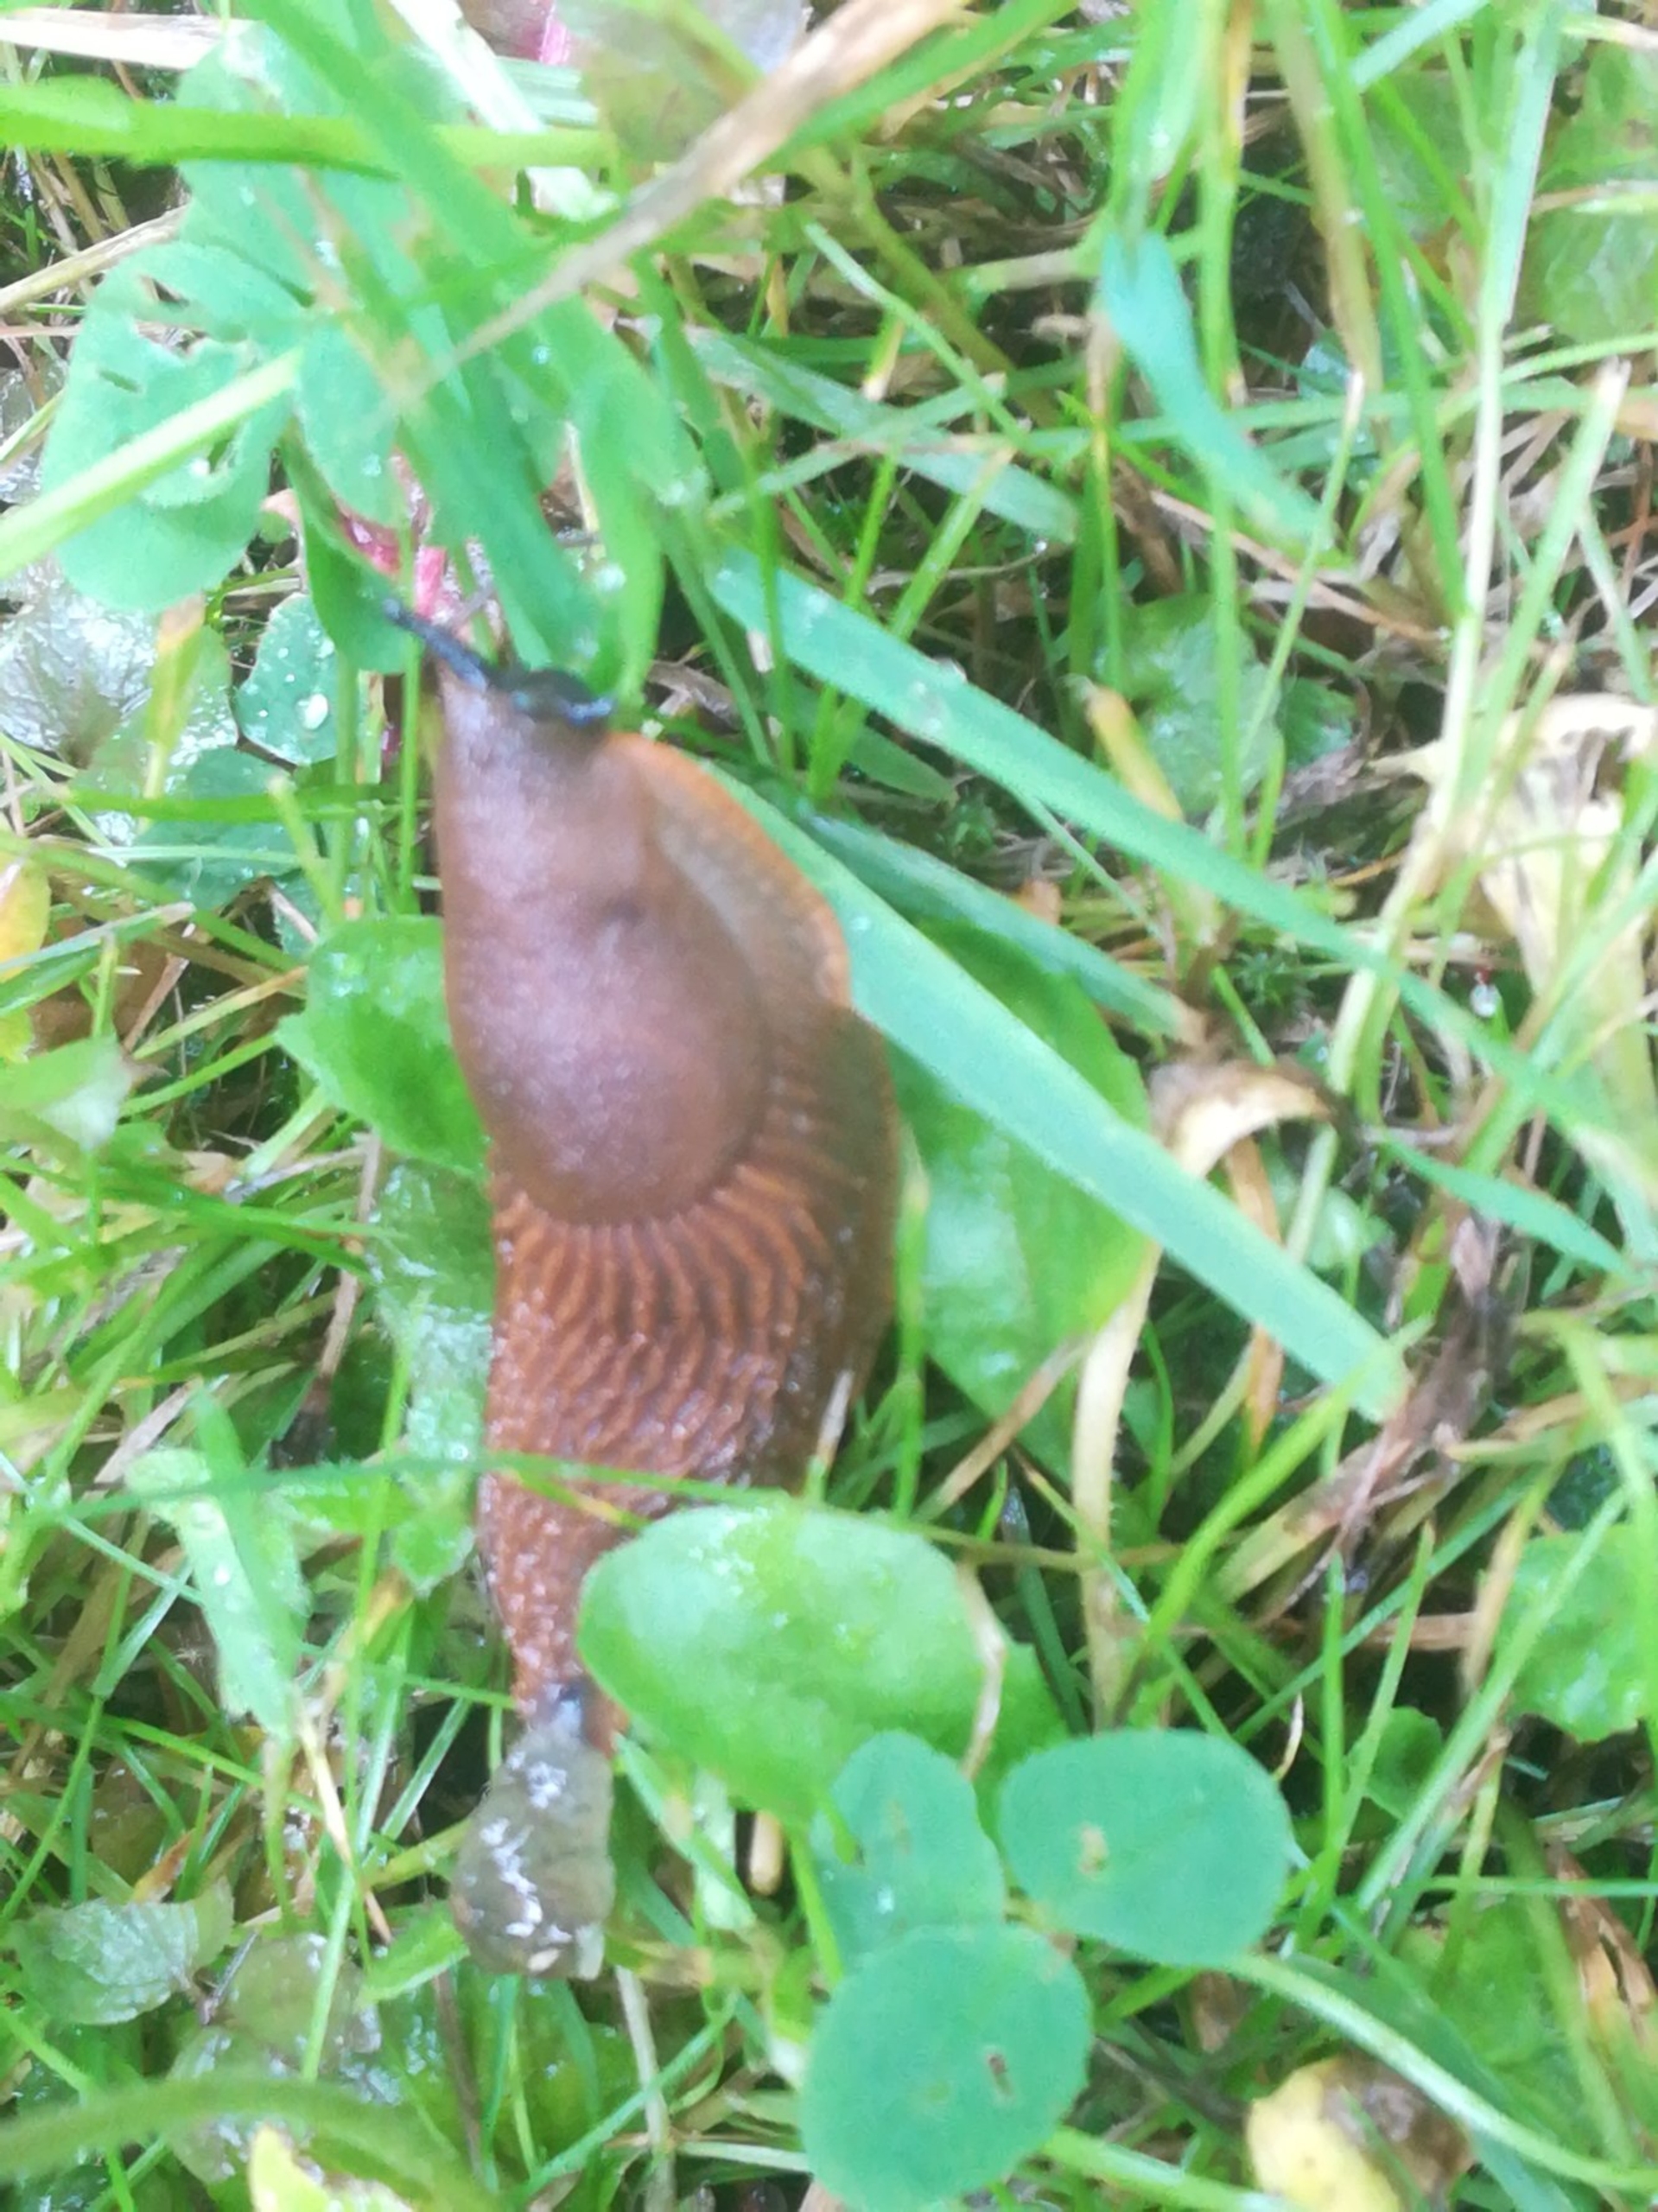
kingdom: Animalia
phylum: Mollusca
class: Gastropoda
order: Stylommatophora
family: Arionidae
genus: Arion
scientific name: Arion vulgaris
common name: Iberisk skovsnegl
